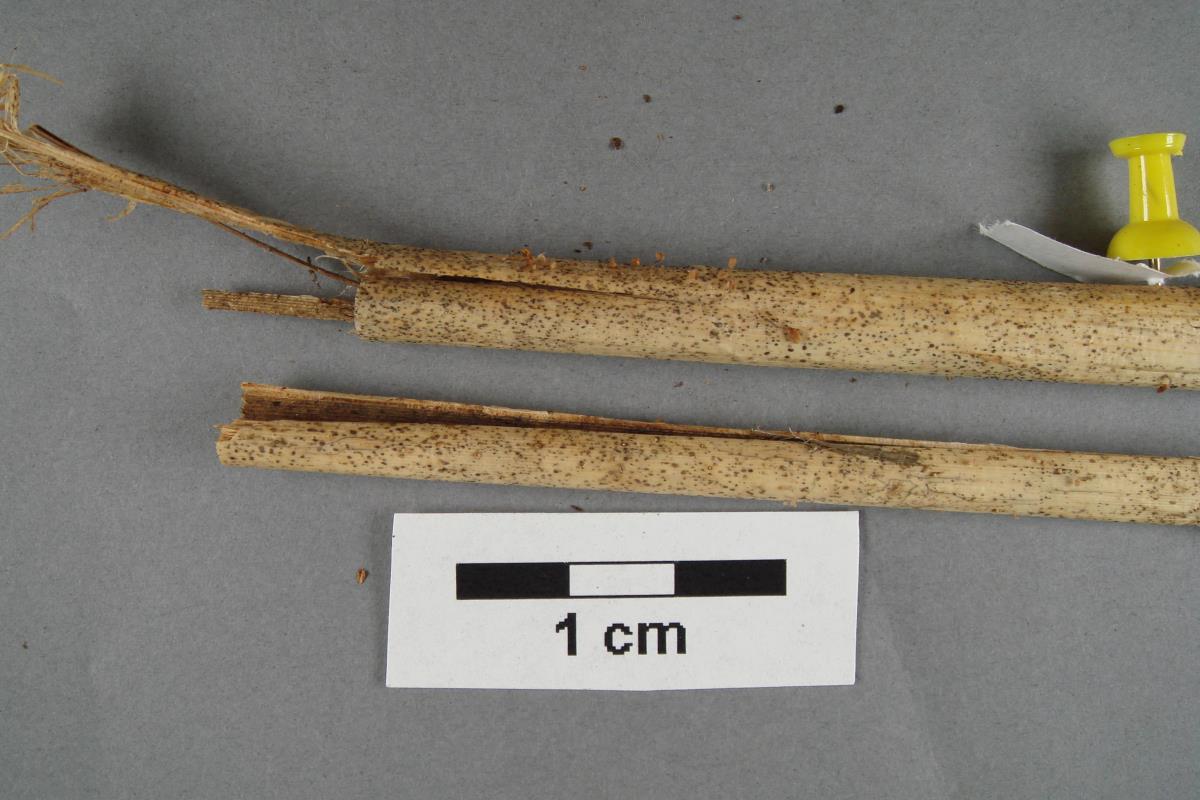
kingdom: Fungi
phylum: Basidiomycota
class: Agaricomycetes
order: Agaricales
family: Physalacriaceae
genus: Cryptomarasmius
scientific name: Cryptomarasmius fishii
